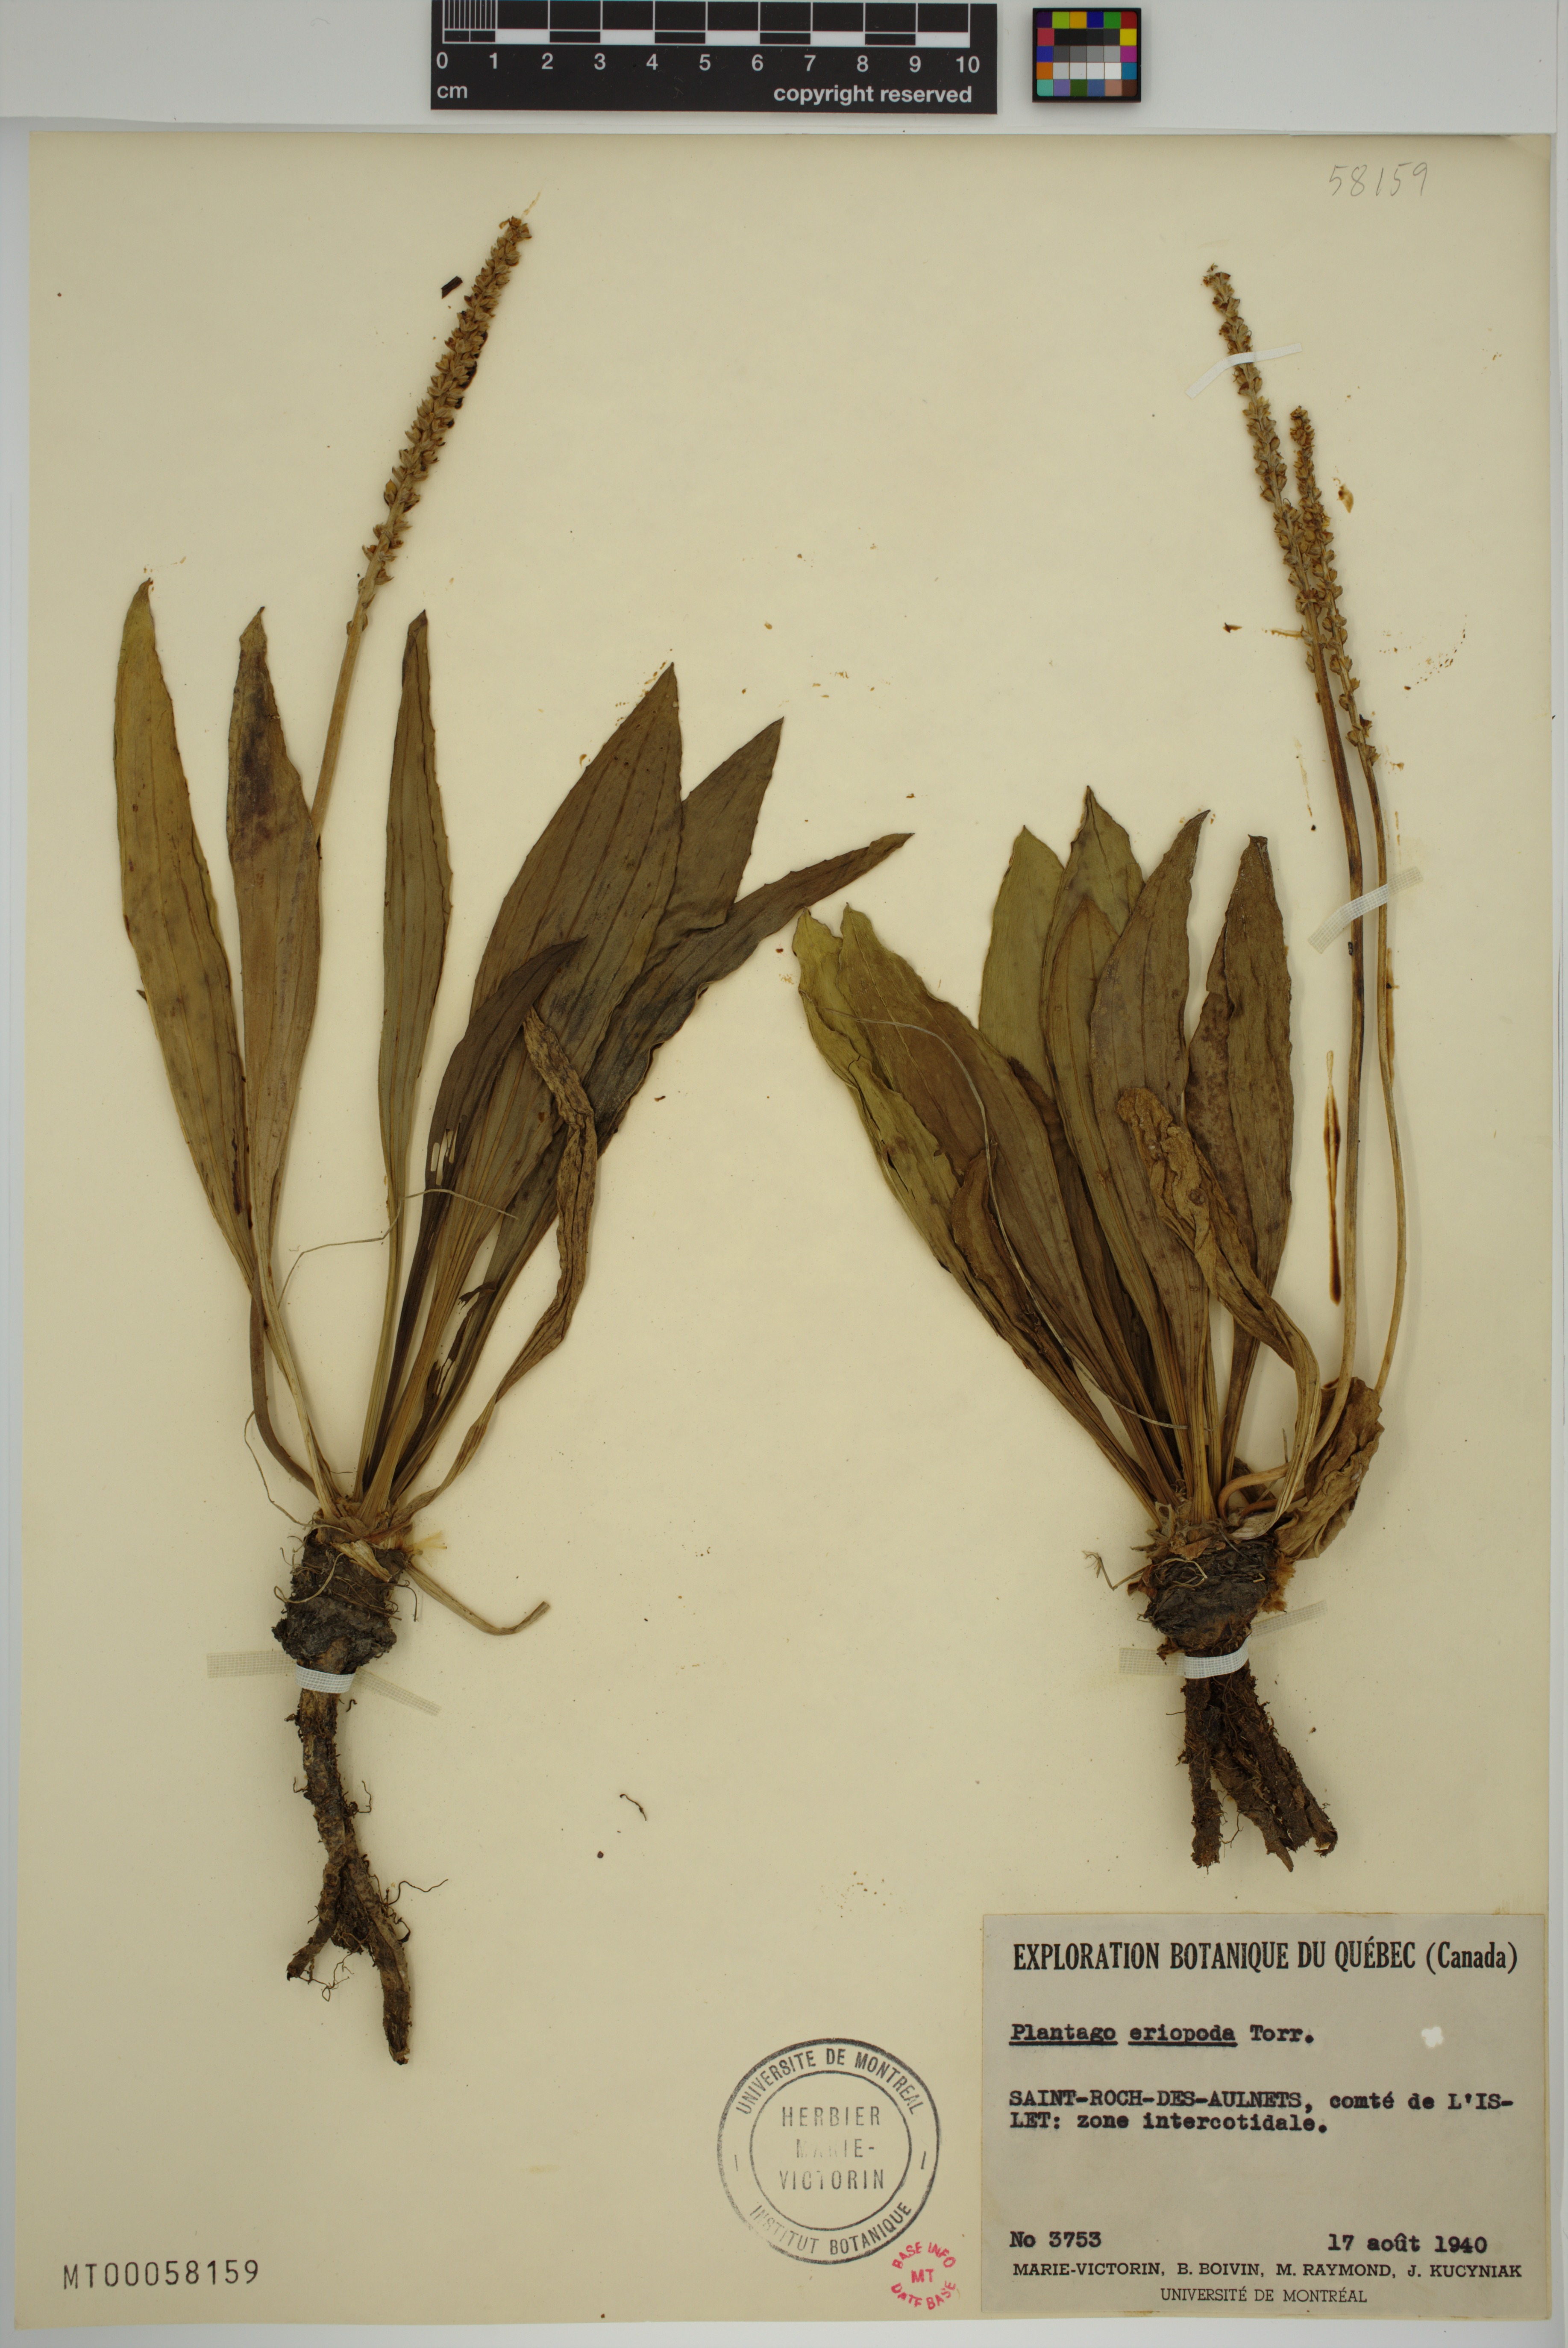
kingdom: Plantae
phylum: Tracheophyta
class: Magnoliopsida
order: Lamiales
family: Plantaginaceae
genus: Plantago
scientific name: Plantago eriopoda
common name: Alkali plantain
